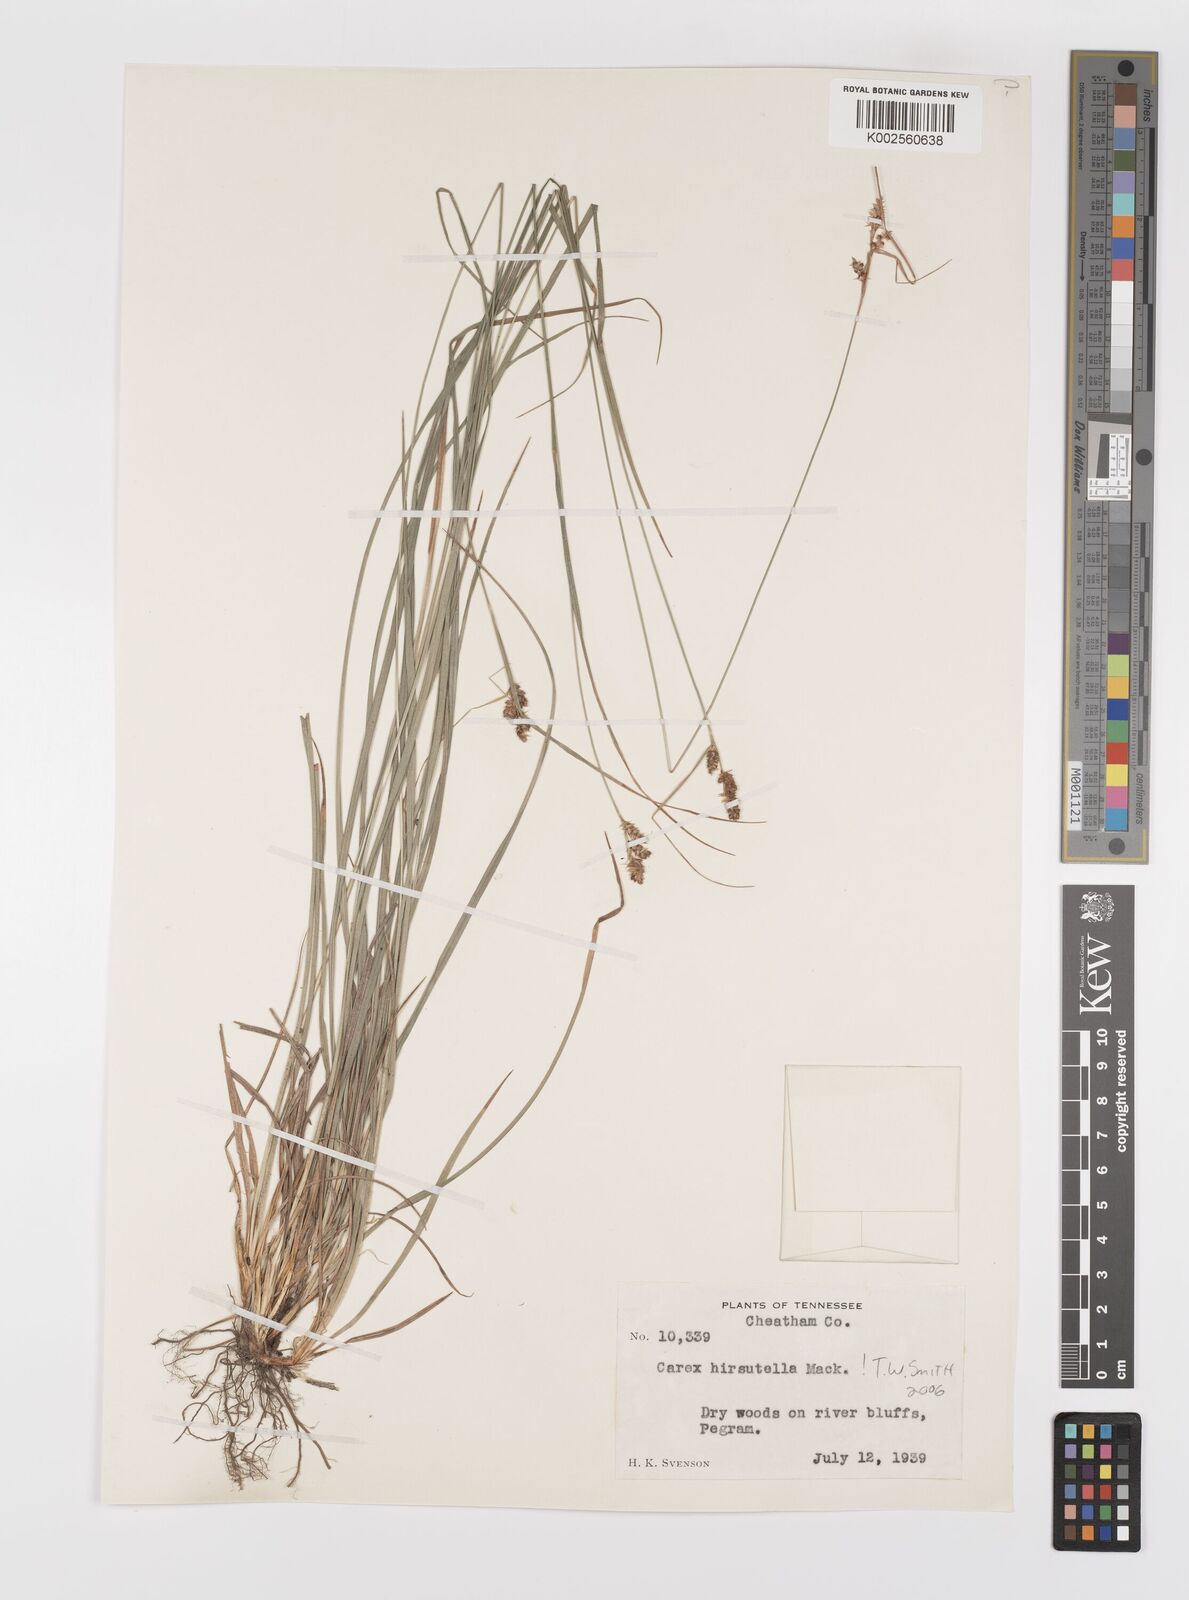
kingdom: Plantae
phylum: Tracheophyta
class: Liliopsida
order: Poales
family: Cyperaceae
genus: Carex
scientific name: Carex hirsutella
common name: Fuzzy wuzzy sedge
